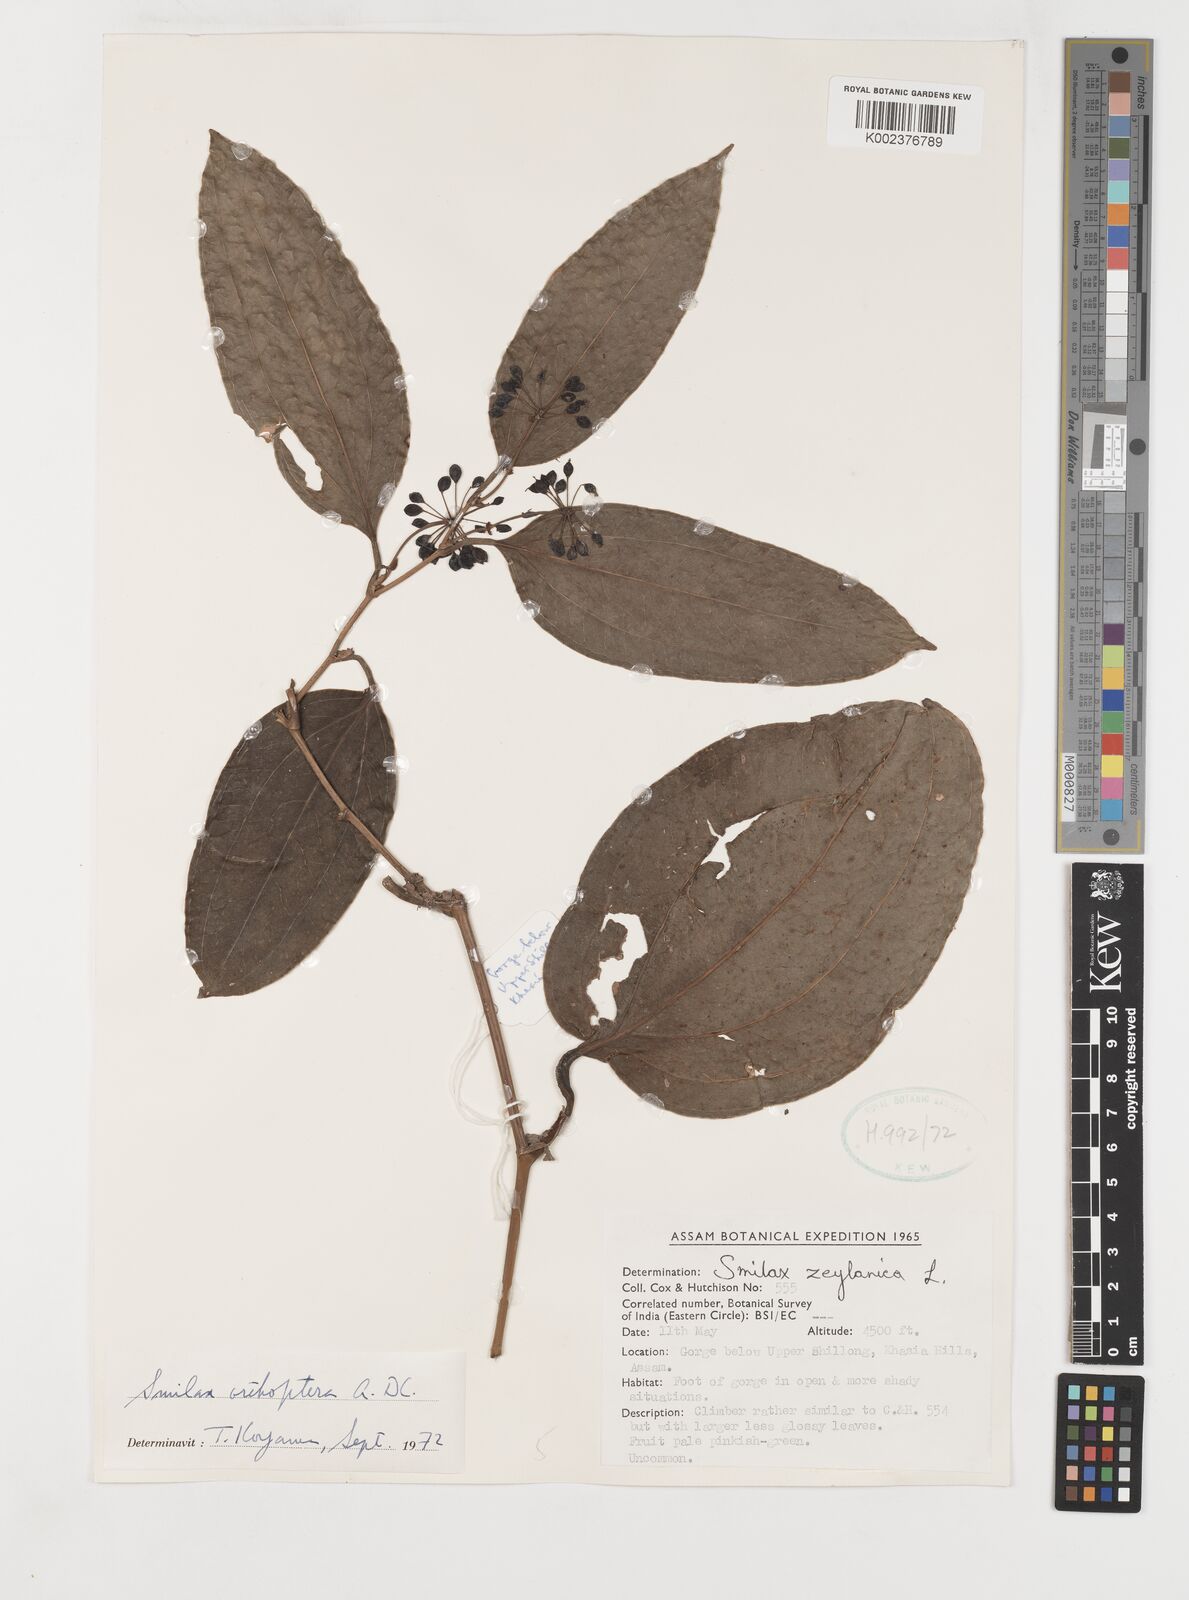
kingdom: Plantae
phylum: Tracheophyta
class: Liliopsida
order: Liliales
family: Smilacaceae
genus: Smilax
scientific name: Smilax orthoptera
